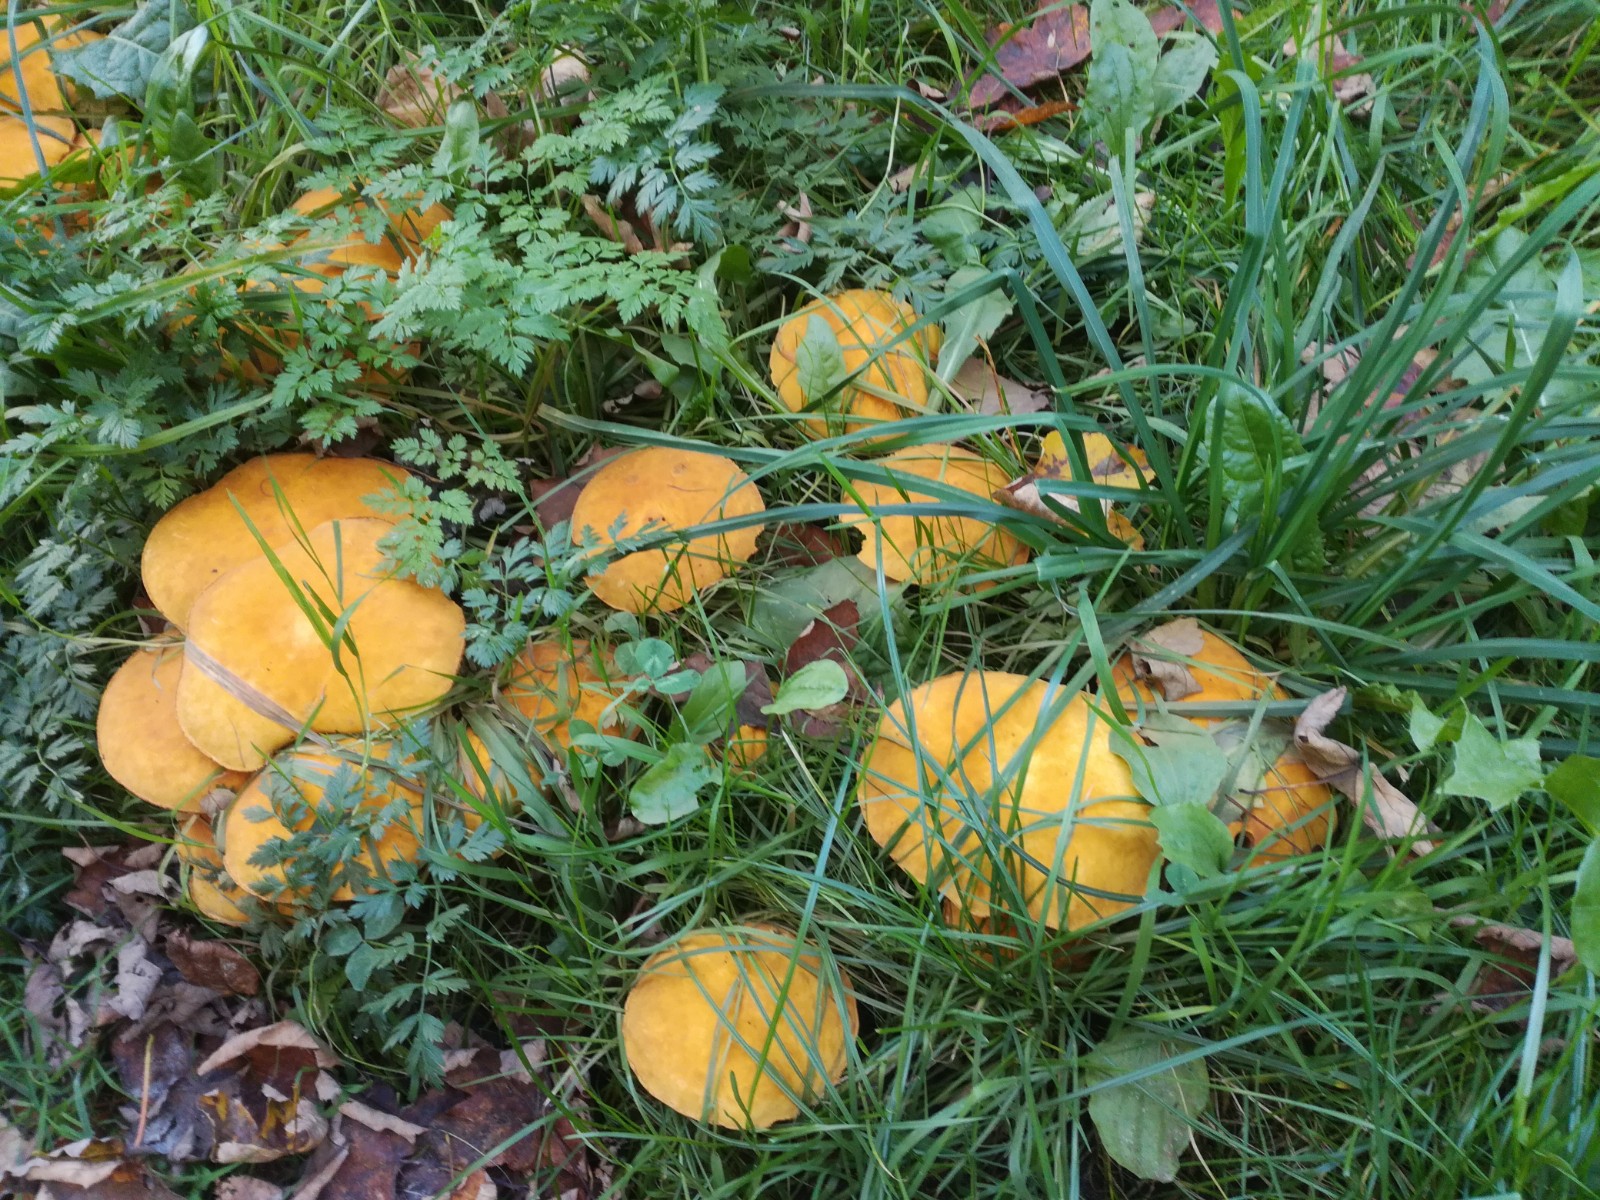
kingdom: Fungi
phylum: Basidiomycota
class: Agaricomycetes
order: Agaricales
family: Tricholomataceae
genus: Phaeolepiota
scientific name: Phaeolepiota aurea
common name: gyldenhat
